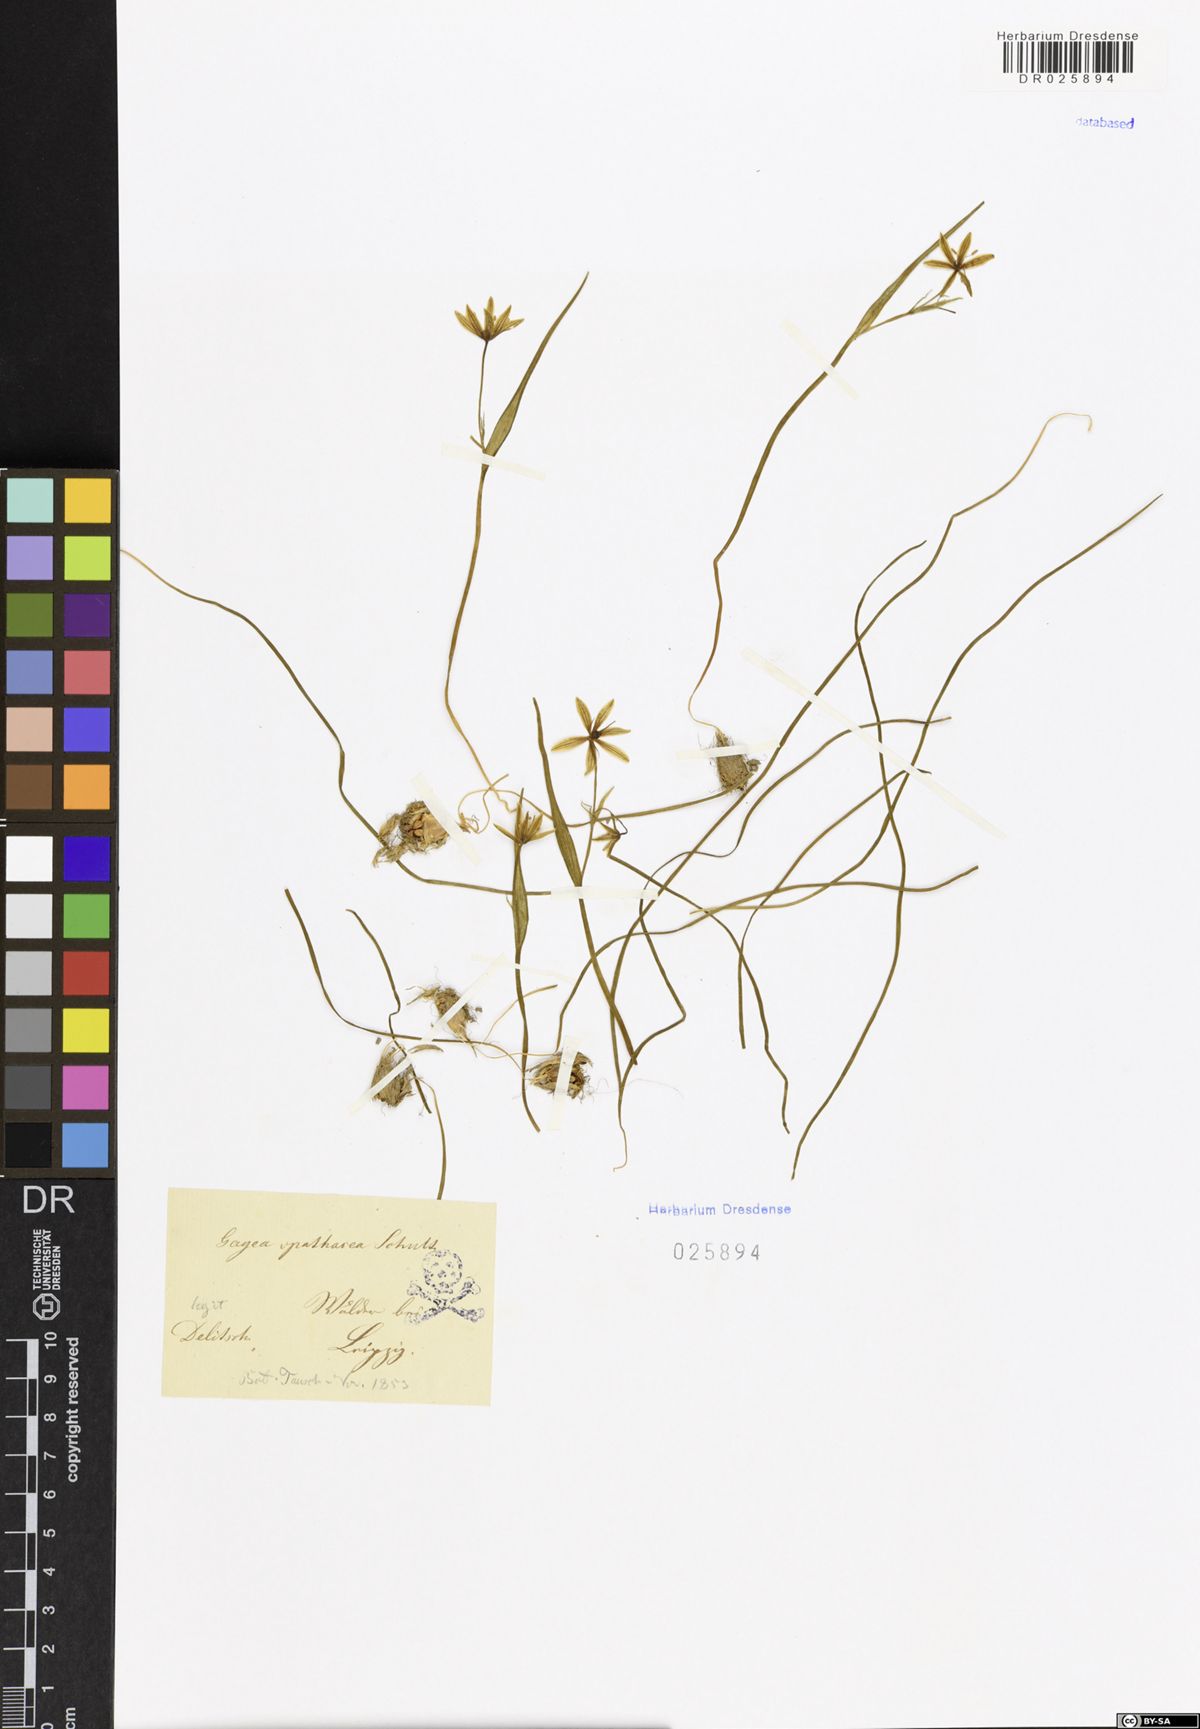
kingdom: Plantae
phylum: Tracheophyta
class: Liliopsida
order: Liliales
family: Liliaceae
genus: Gagea
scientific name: Gagea spathacea
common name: Belgian gagea
